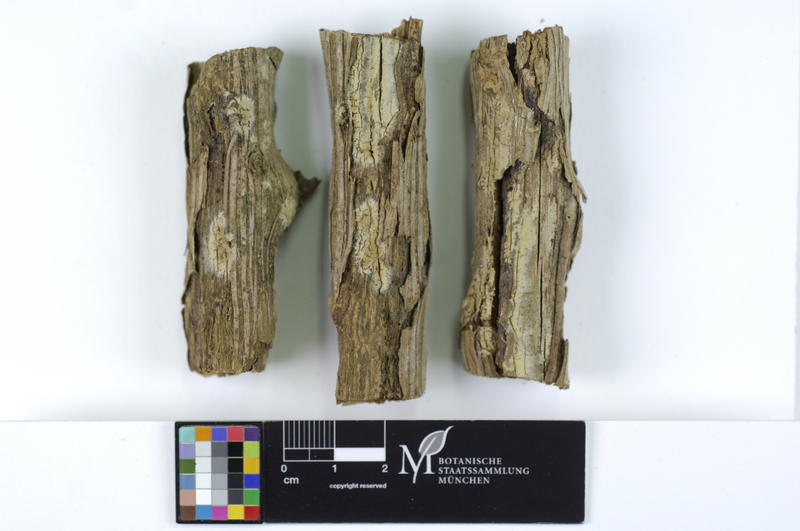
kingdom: Plantae
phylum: Tracheophyta
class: Magnoliopsida
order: Ranunculales
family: Berberidaceae
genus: Berberis
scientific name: Berberis
